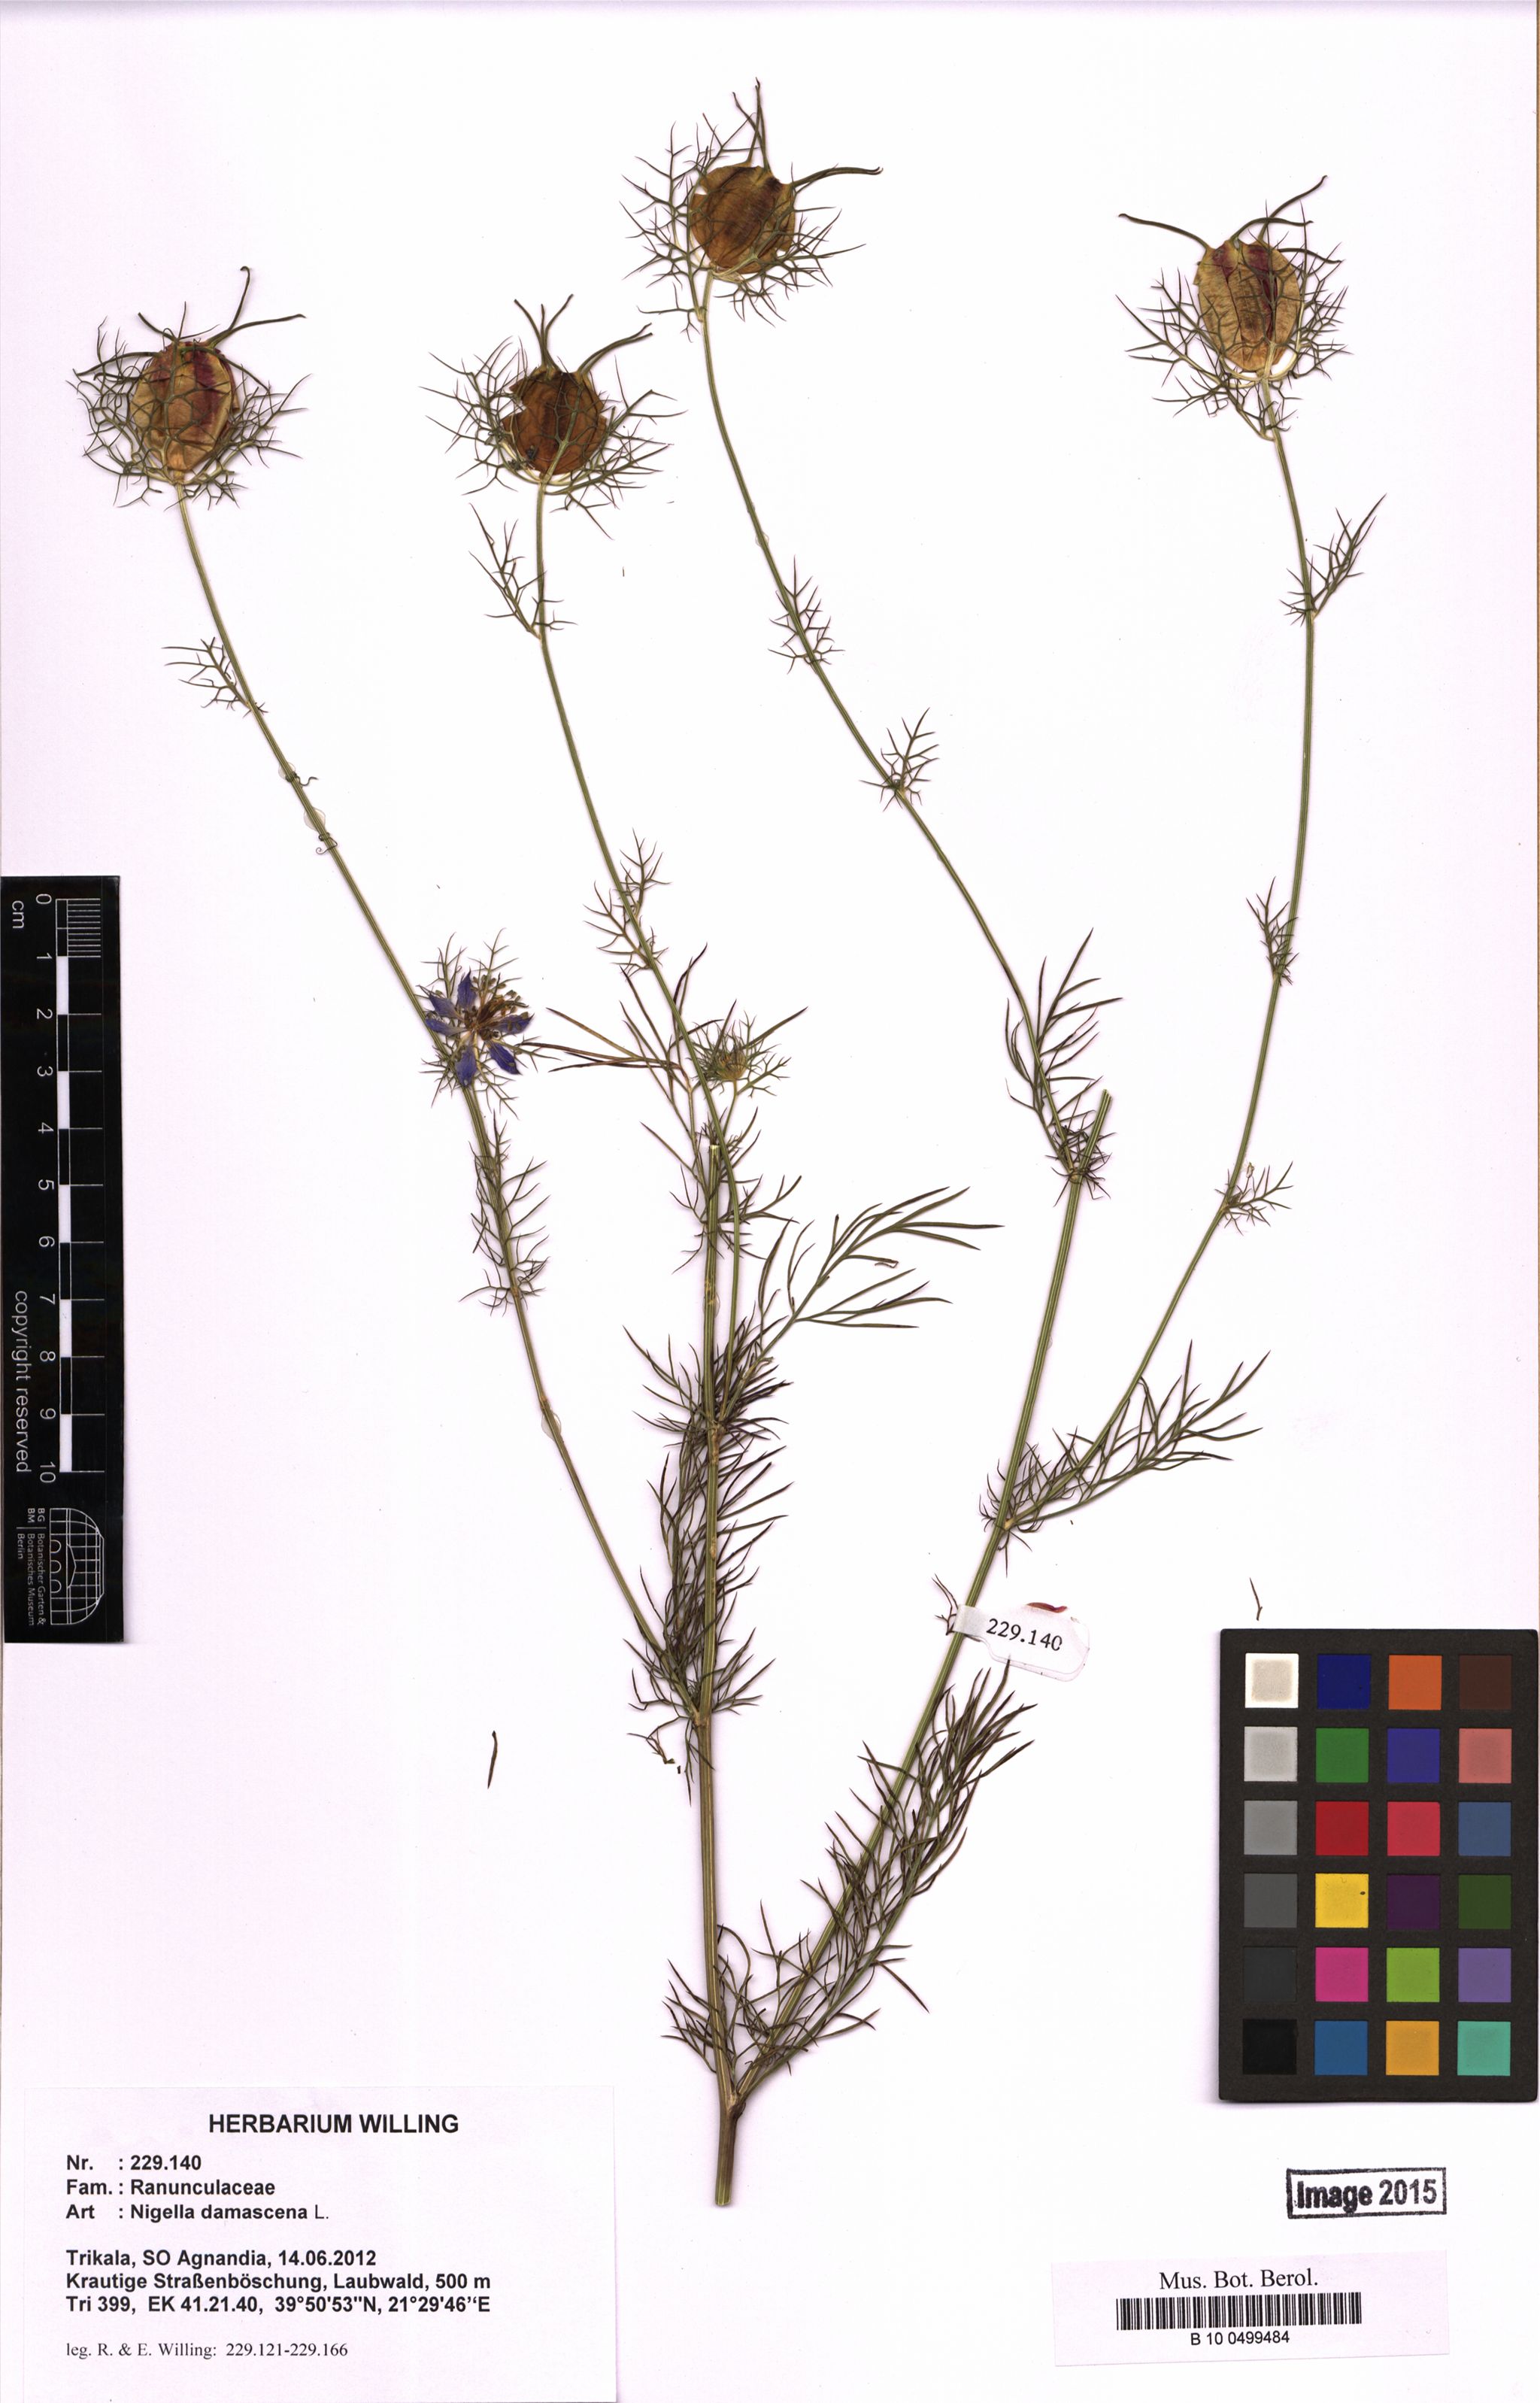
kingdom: Plantae
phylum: Tracheophyta
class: Magnoliopsida
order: Ranunculales
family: Ranunculaceae
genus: Nigella
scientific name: Nigella damascena
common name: Love-in-a-mist
